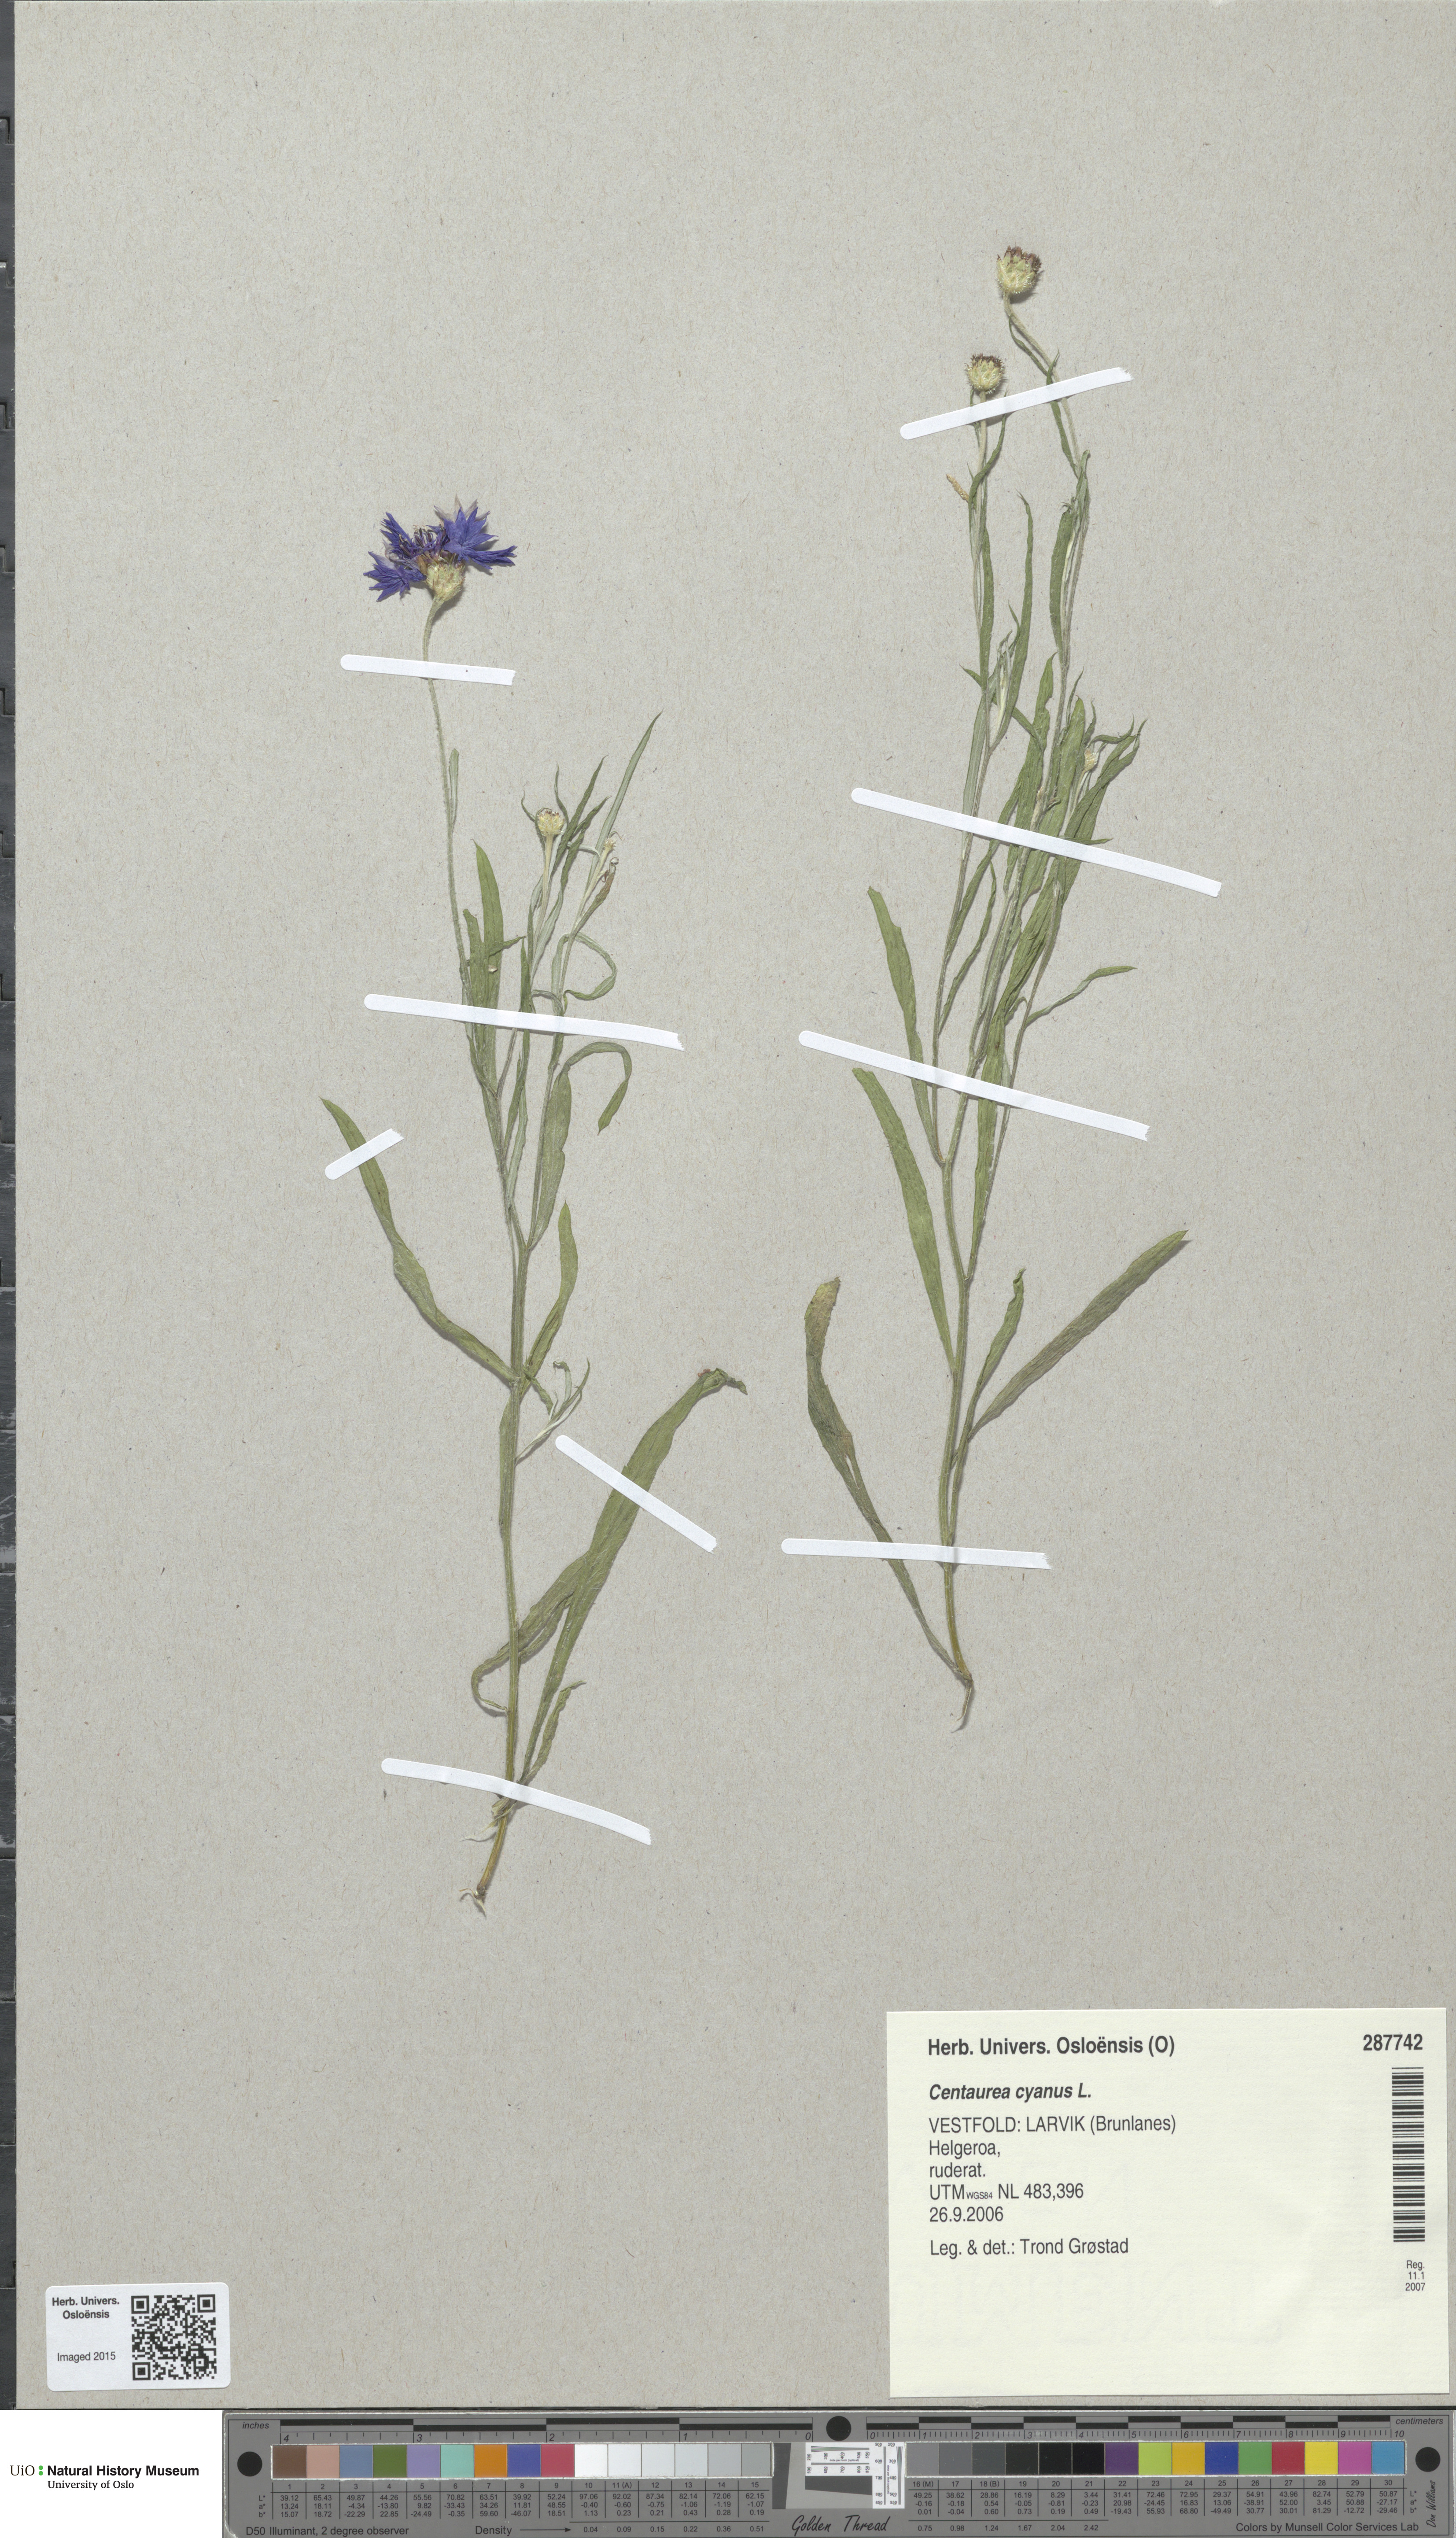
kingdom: Plantae
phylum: Tracheophyta
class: Magnoliopsida
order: Asterales
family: Asteraceae
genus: Centaurea
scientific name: Centaurea cyanus
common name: Cornflower
